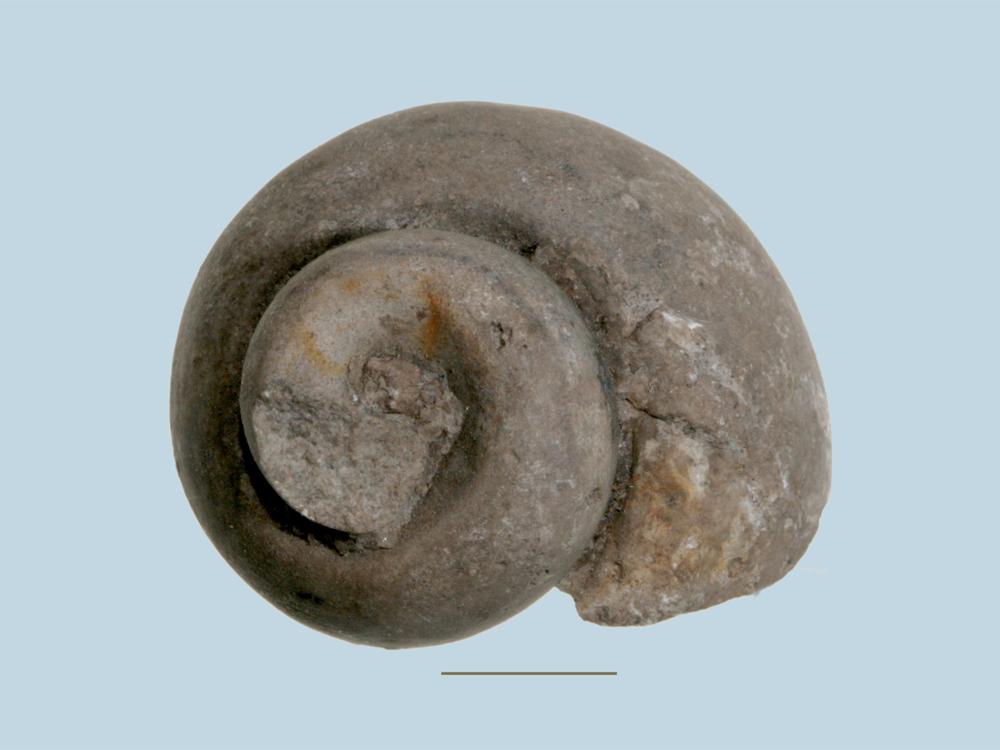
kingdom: Animalia
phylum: Mollusca
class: Gastropoda
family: Holopeidae
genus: Holopea
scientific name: Holopea
